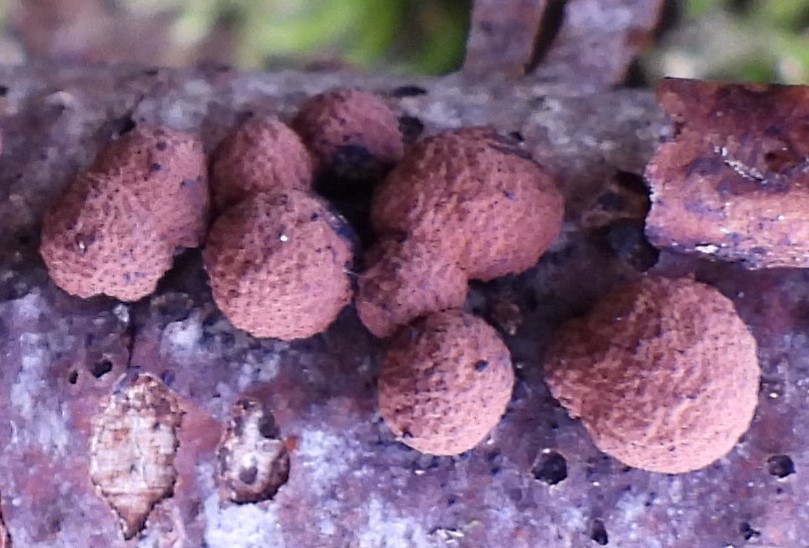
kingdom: Fungi
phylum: Ascomycota
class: Sordariomycetes
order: Xylariales
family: Hypoxylaceae
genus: Hypoxylon
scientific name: Hypoxylon howeanum
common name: halvkugleformet kulbær
